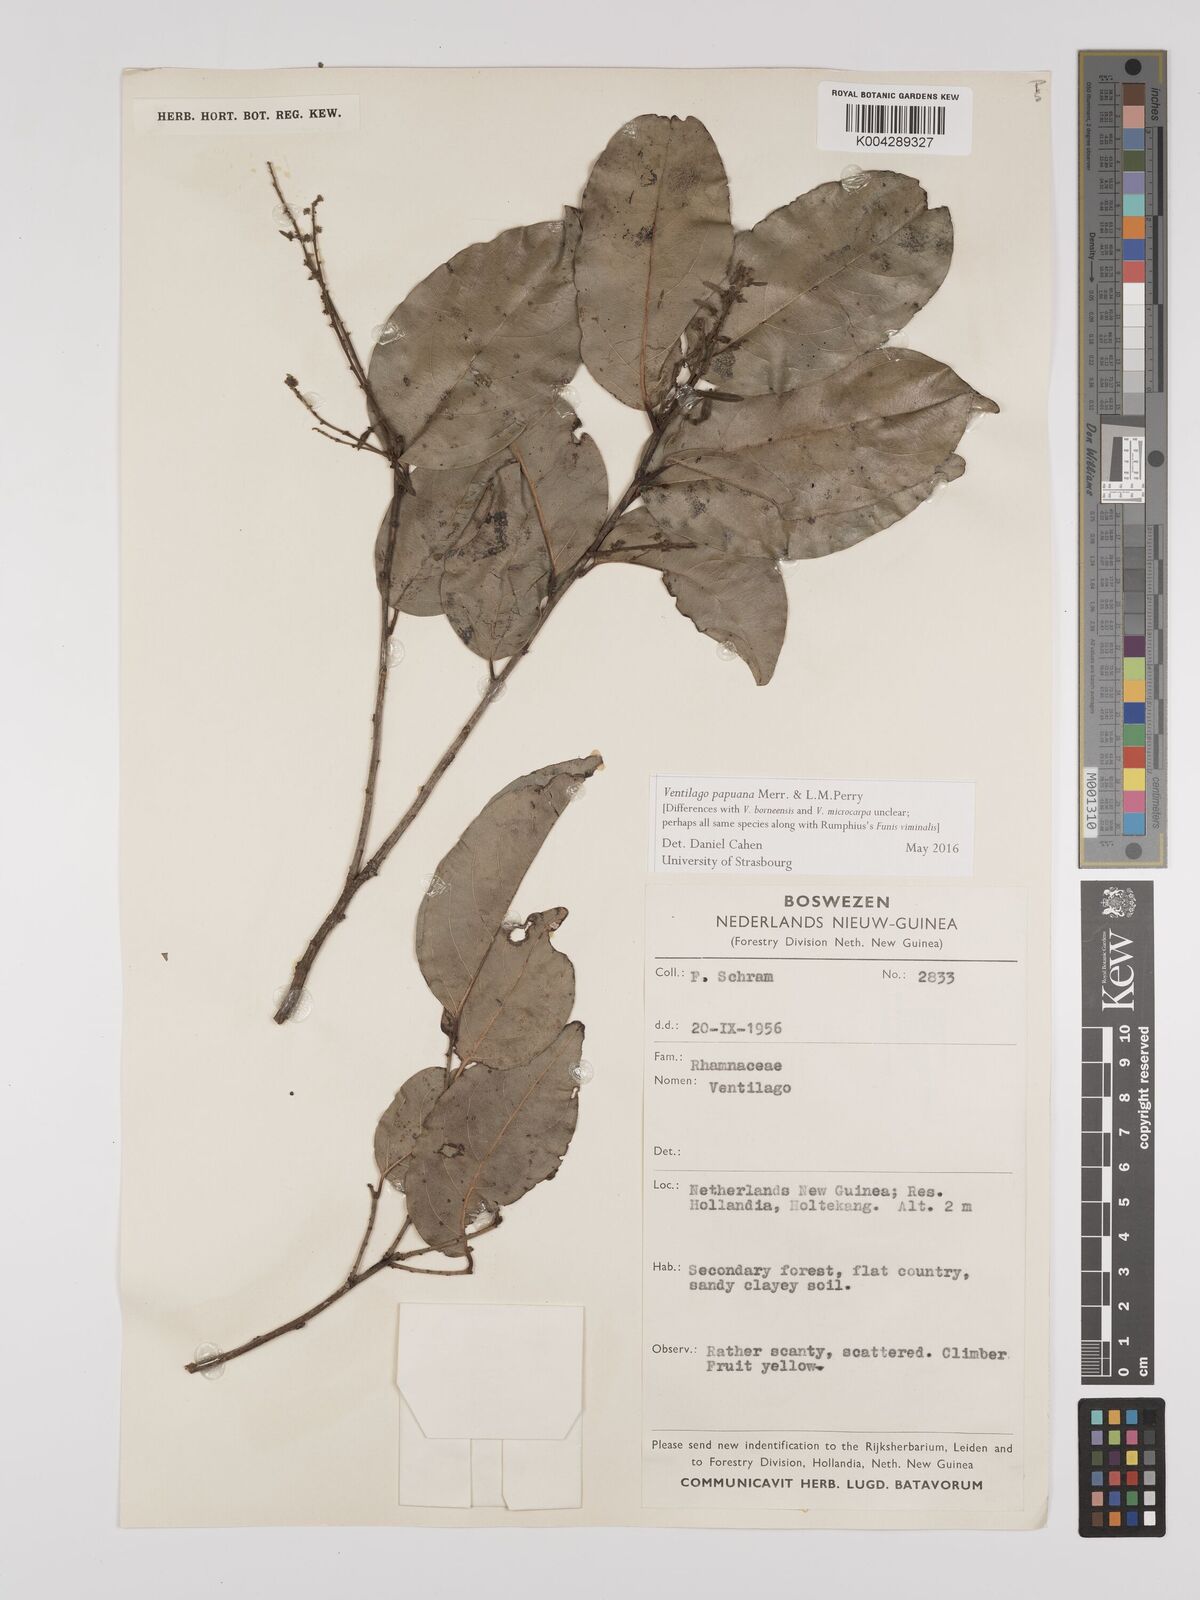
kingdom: Plantae
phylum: Tracheophyta
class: Magnoliopsida
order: Rosales
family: Rhamnaceae
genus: Ventilago
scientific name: Ventilago papuana
